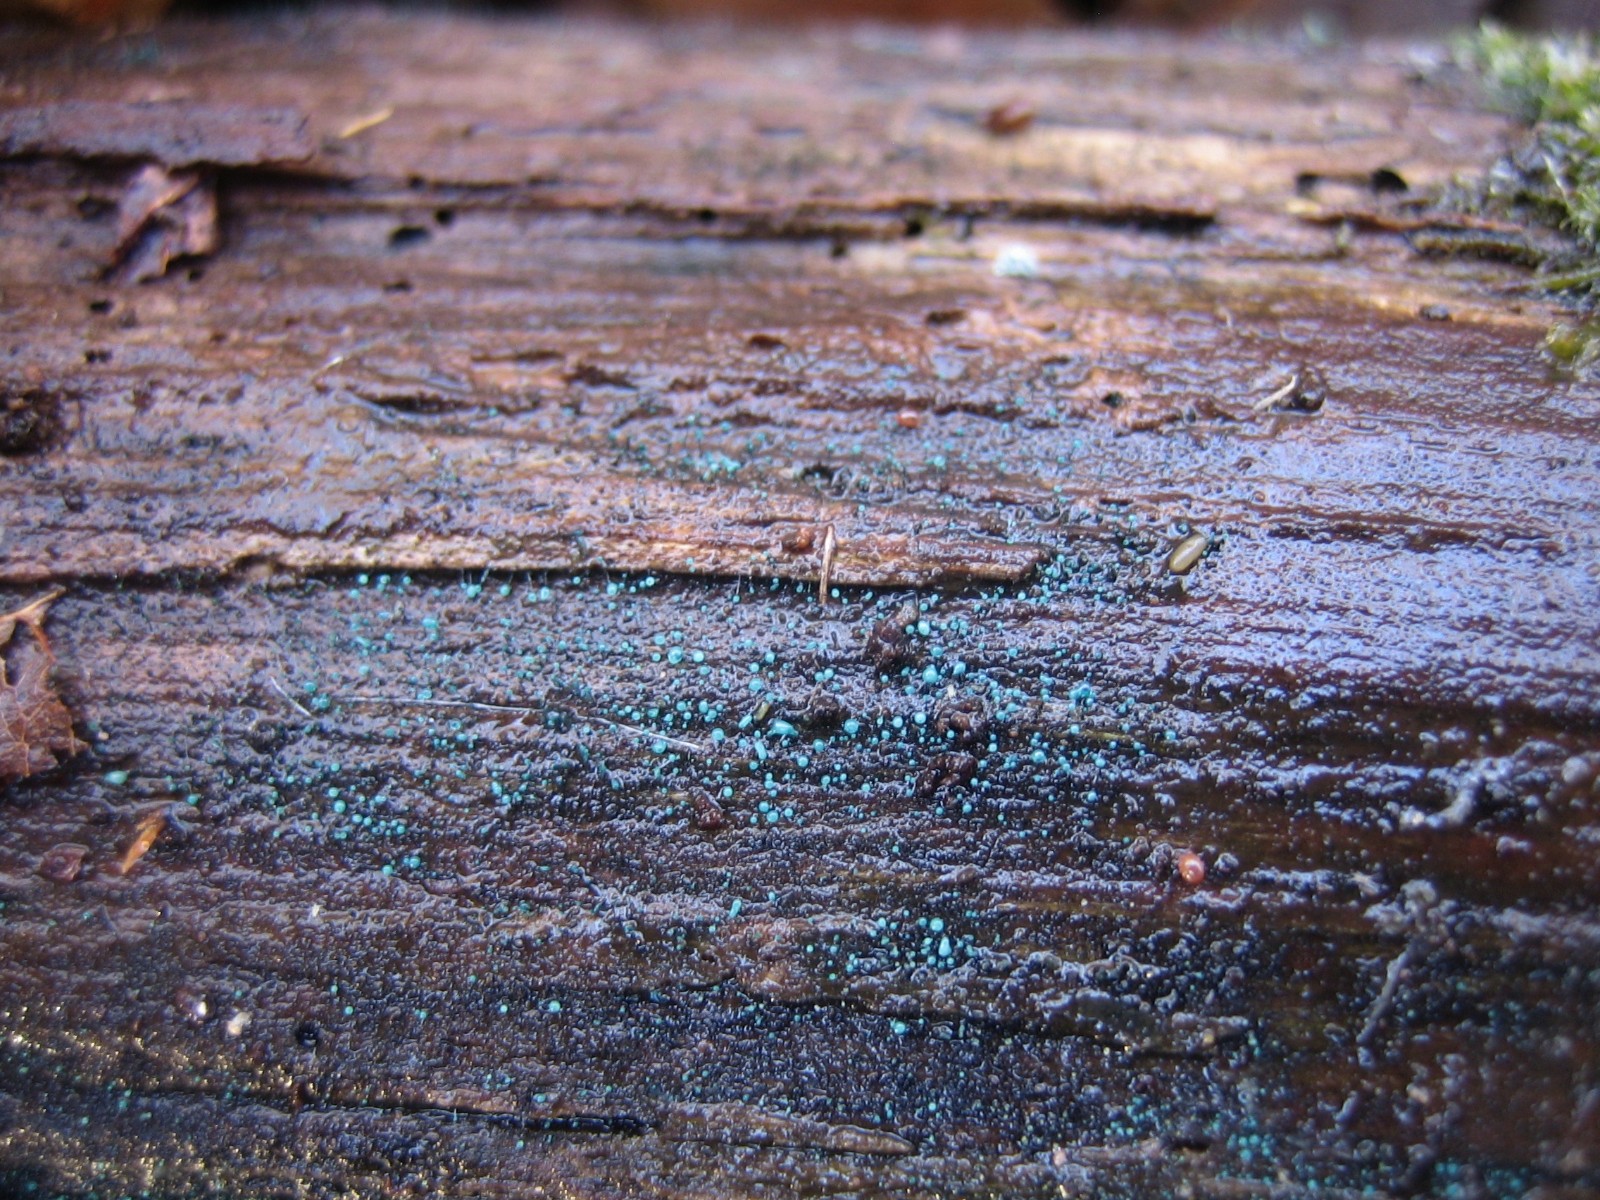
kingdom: Fungi
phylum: Ascomycota
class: Leotiomycetes
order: Leotiales
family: Tympanidaceae
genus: Dendrostilbella
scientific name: Dendrostilbella smaragdina
